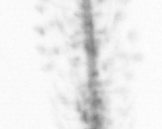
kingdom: Chromista
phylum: Ochrophyta
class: Bacillariophyceae
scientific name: Bacillariophyceae
